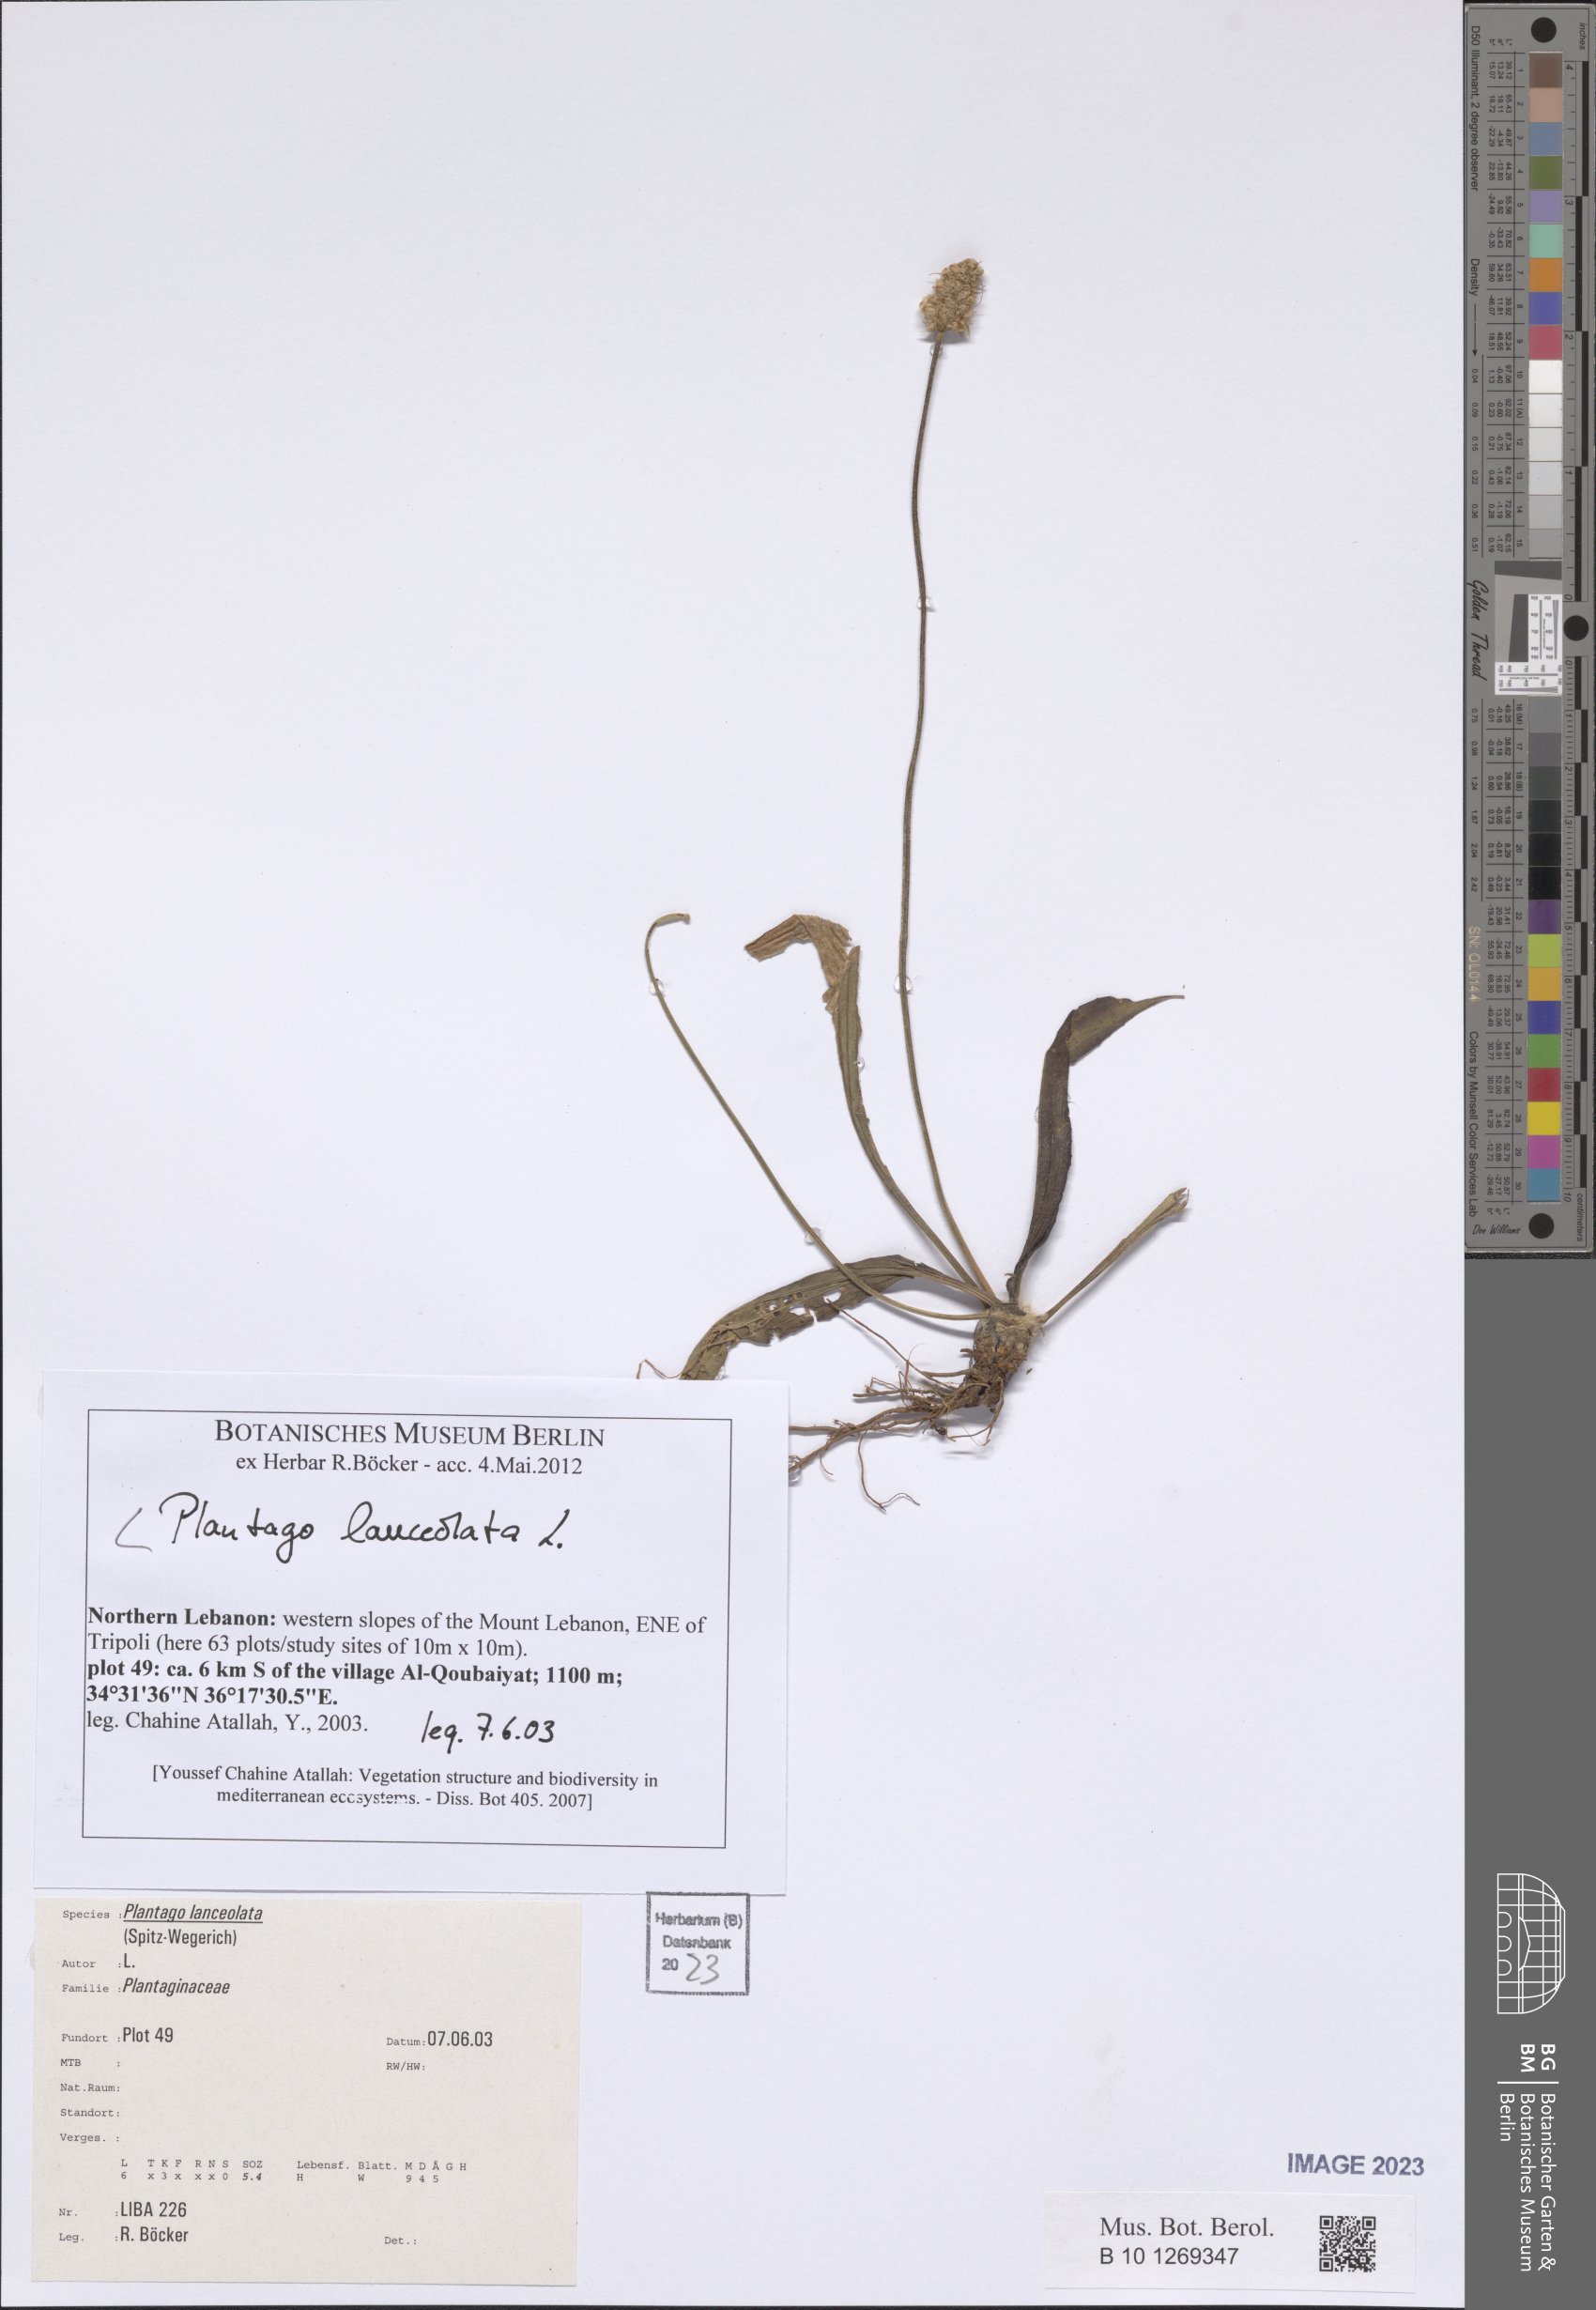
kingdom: Plantae
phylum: Tracheophyta
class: Magnoliopsida
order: Lamiales
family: Plantaginaceae
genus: Plantago
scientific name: Plantago lanceolata
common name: Ribwort plantain
